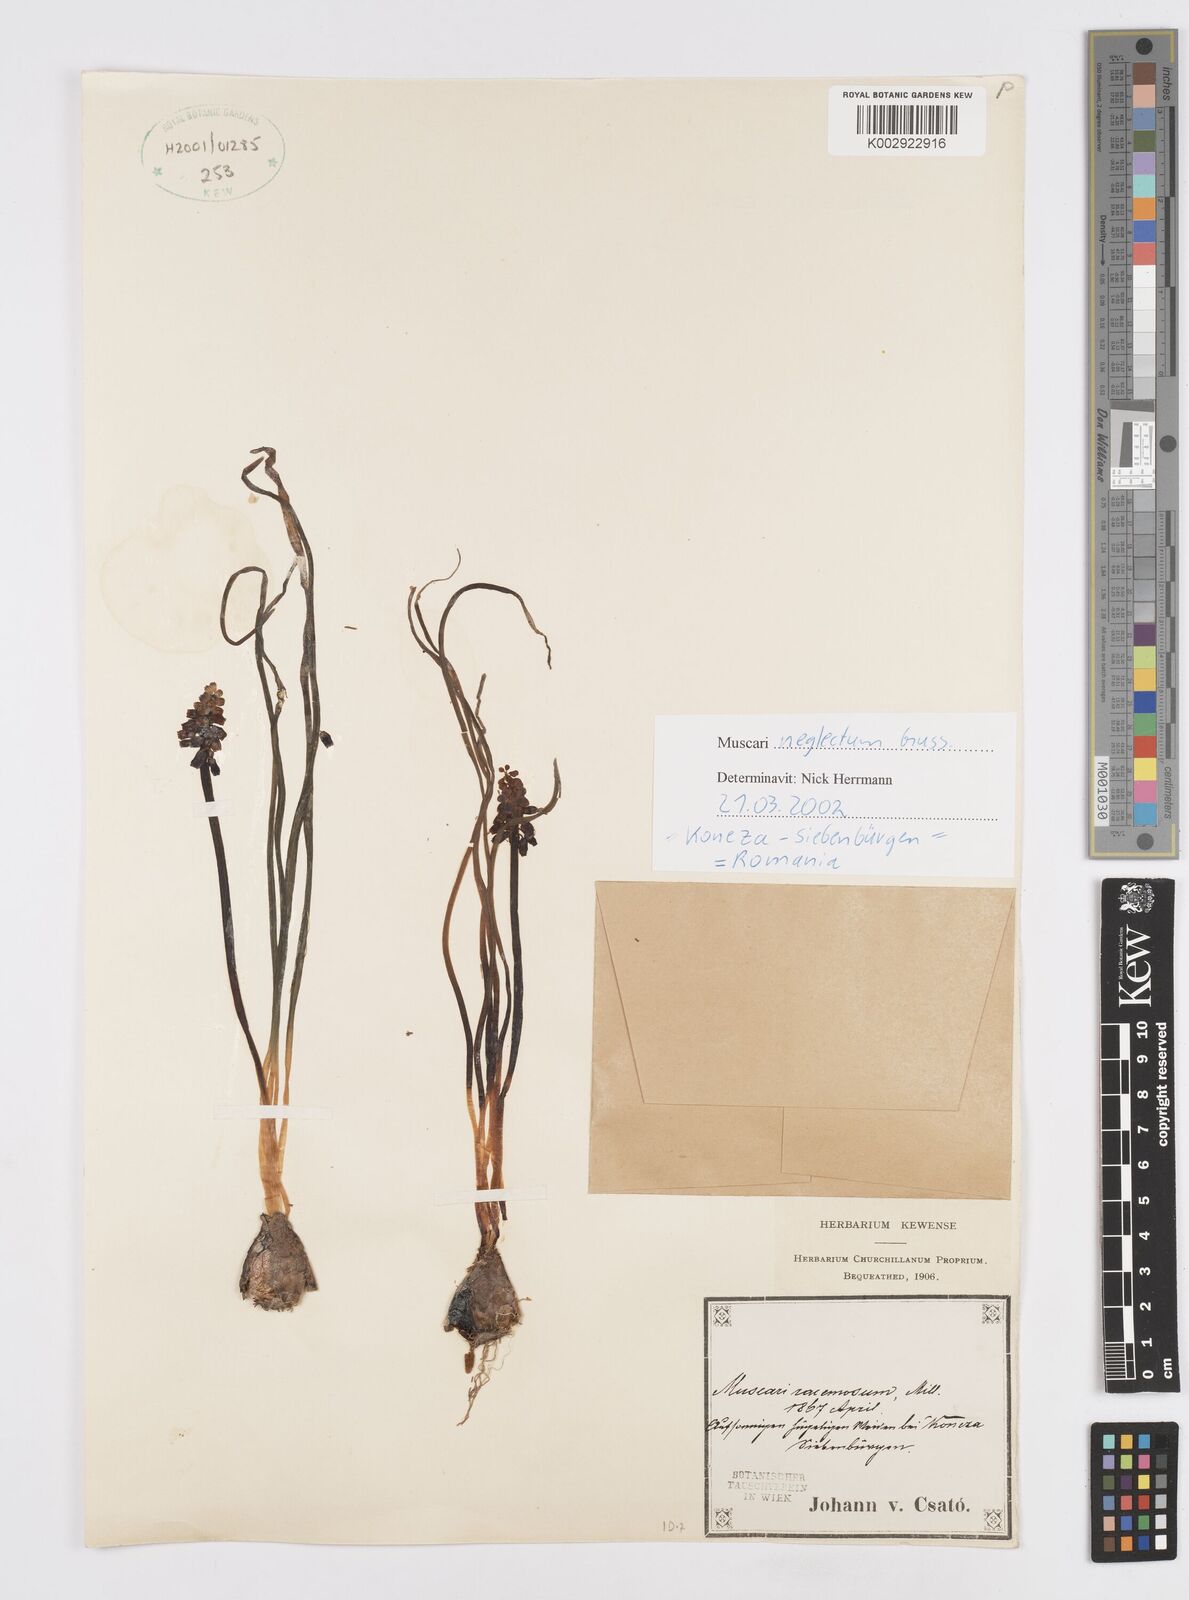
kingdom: Plantae
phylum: Tracheophyta
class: Liliopsida
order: Asparagales
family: Asparagaceae
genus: Muscarimia
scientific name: Muscarimia muscari
